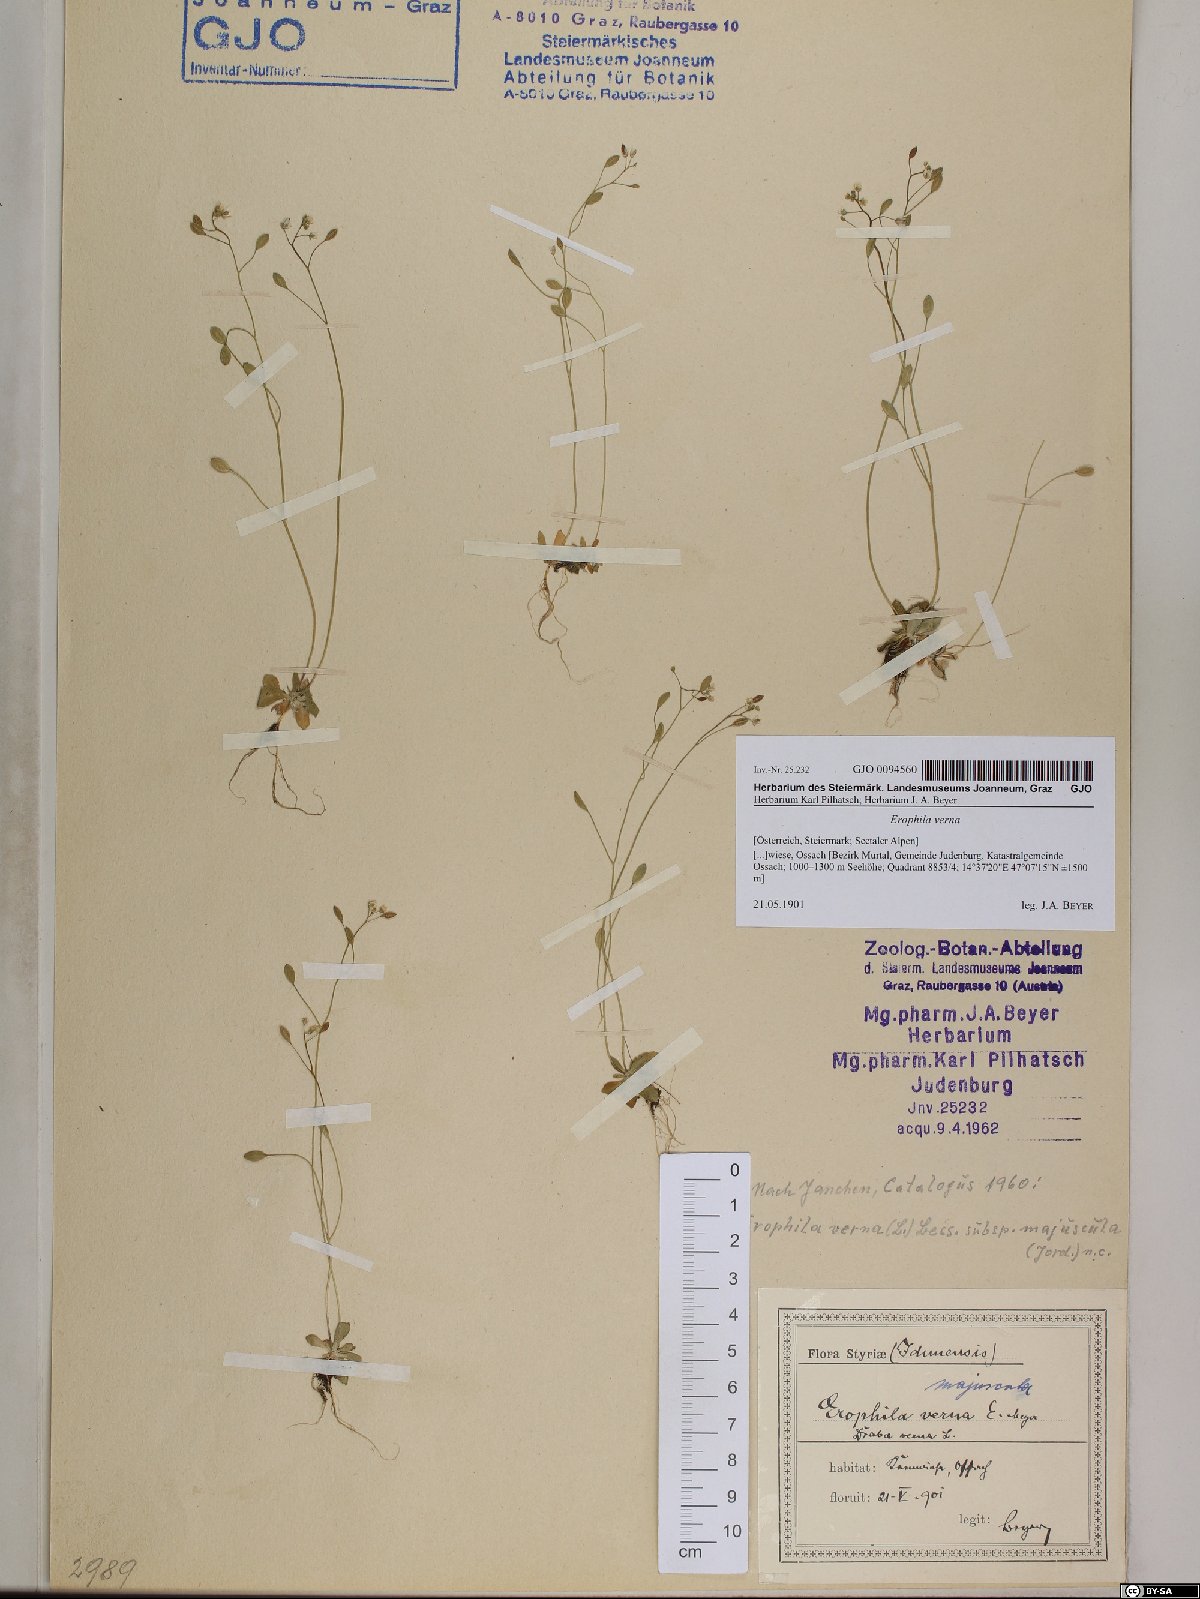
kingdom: Plantae
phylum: Tracheophyta
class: Magnoliopsida
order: Brassicales
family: Brassicaceae
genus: Draba
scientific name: Draba verna
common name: Spring draba
